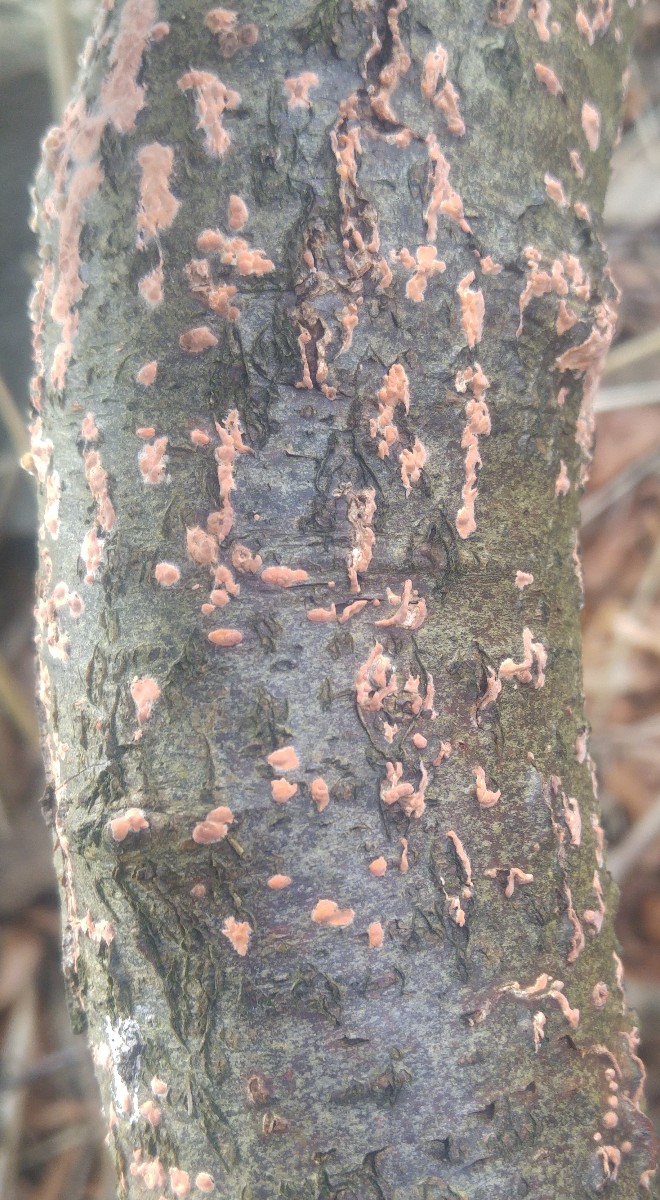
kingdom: Fungi
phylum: Basidiomycota
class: Agaricomycetes
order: Russulales
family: Peniophoraceae
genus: Peniophora
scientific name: Peniophora incarnata
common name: laksefarvet voksskind
